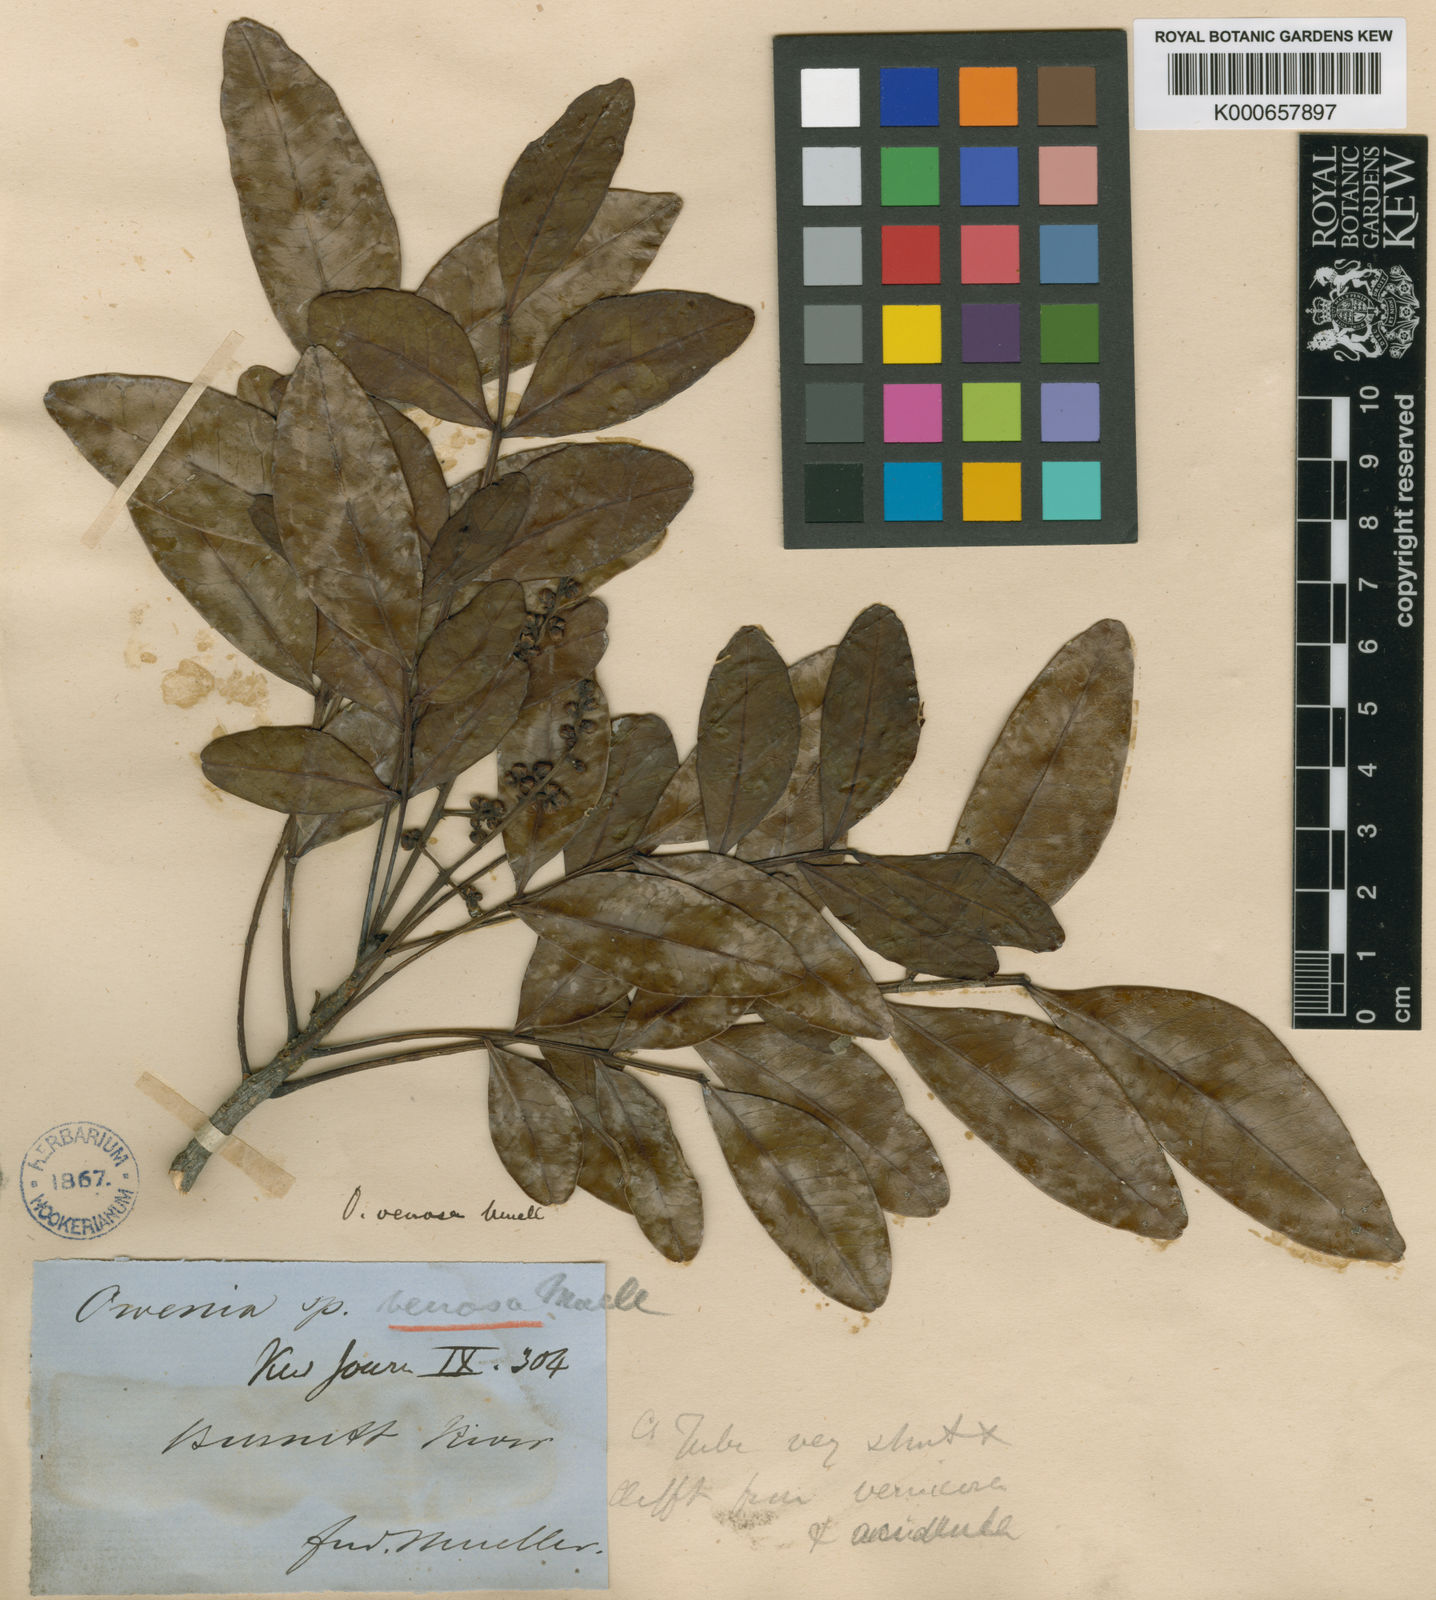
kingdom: Plantae
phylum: Tracheophyta
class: Magnoliopsida
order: Sapindales
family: Meliaceae
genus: Owenia
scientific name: Owenia venosa
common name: Crow's-apple
